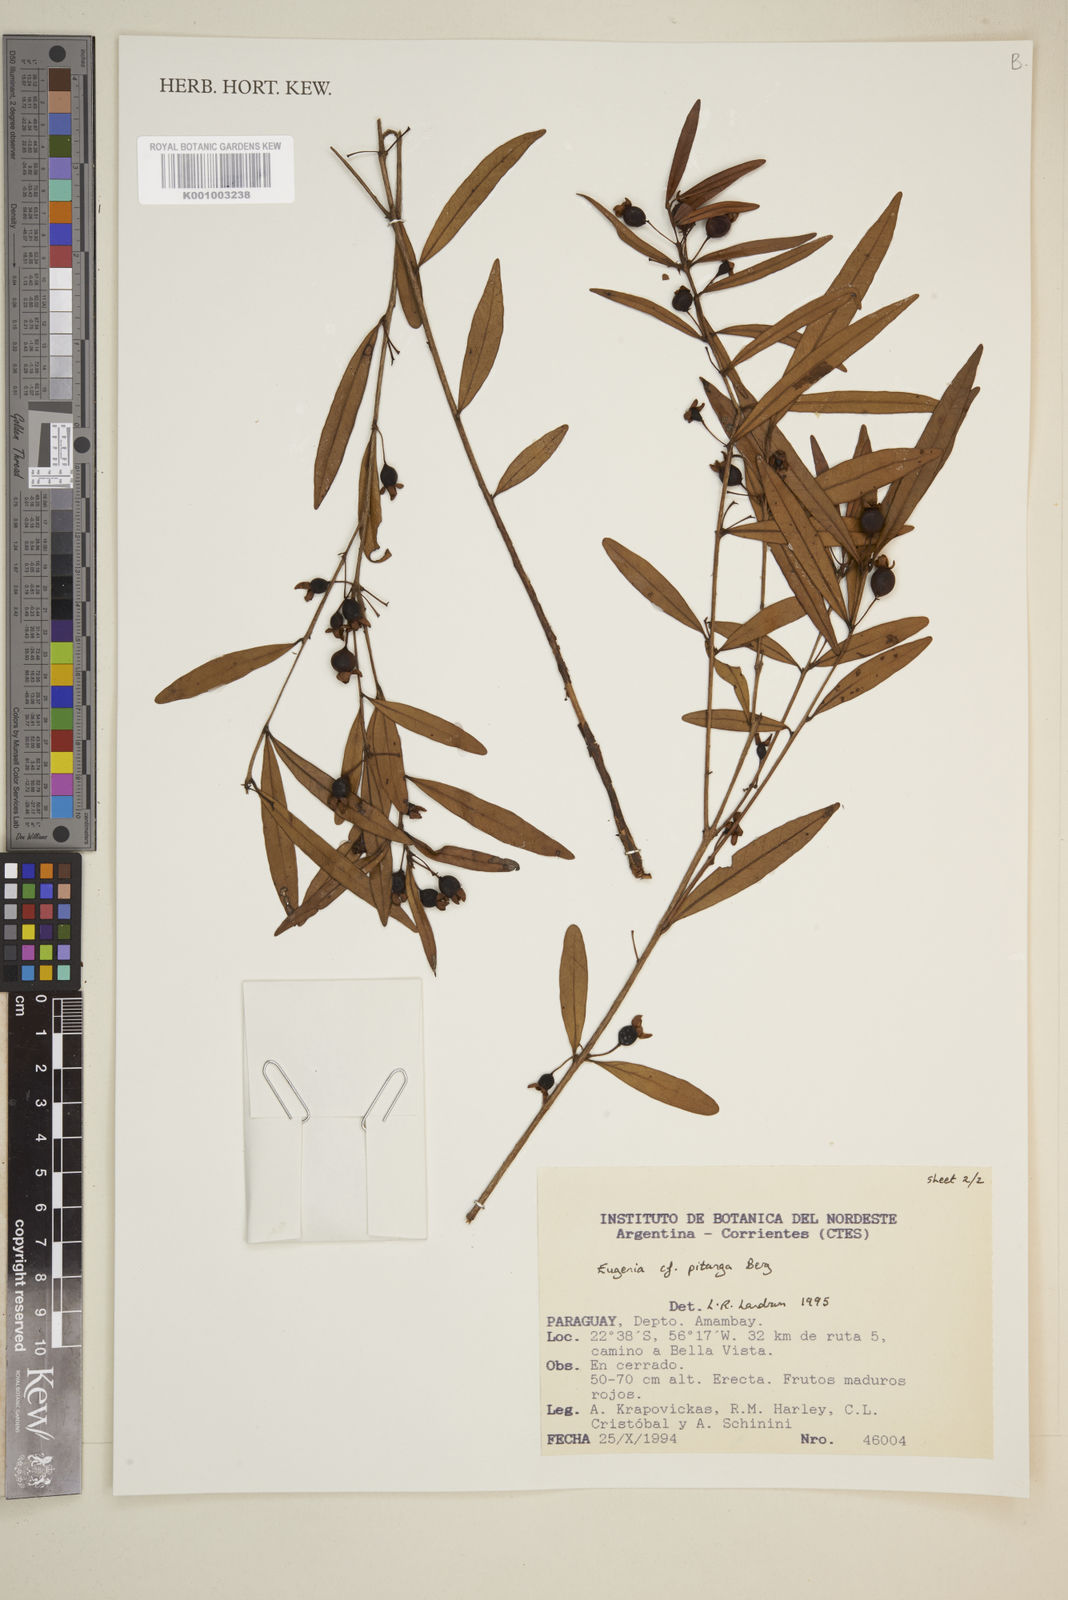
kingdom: Plantae
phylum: Tracheophyta
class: Magnoliopsida
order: Myrtales
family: Myrtaceae
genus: Eugenia
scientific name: Eugenia pitanga
